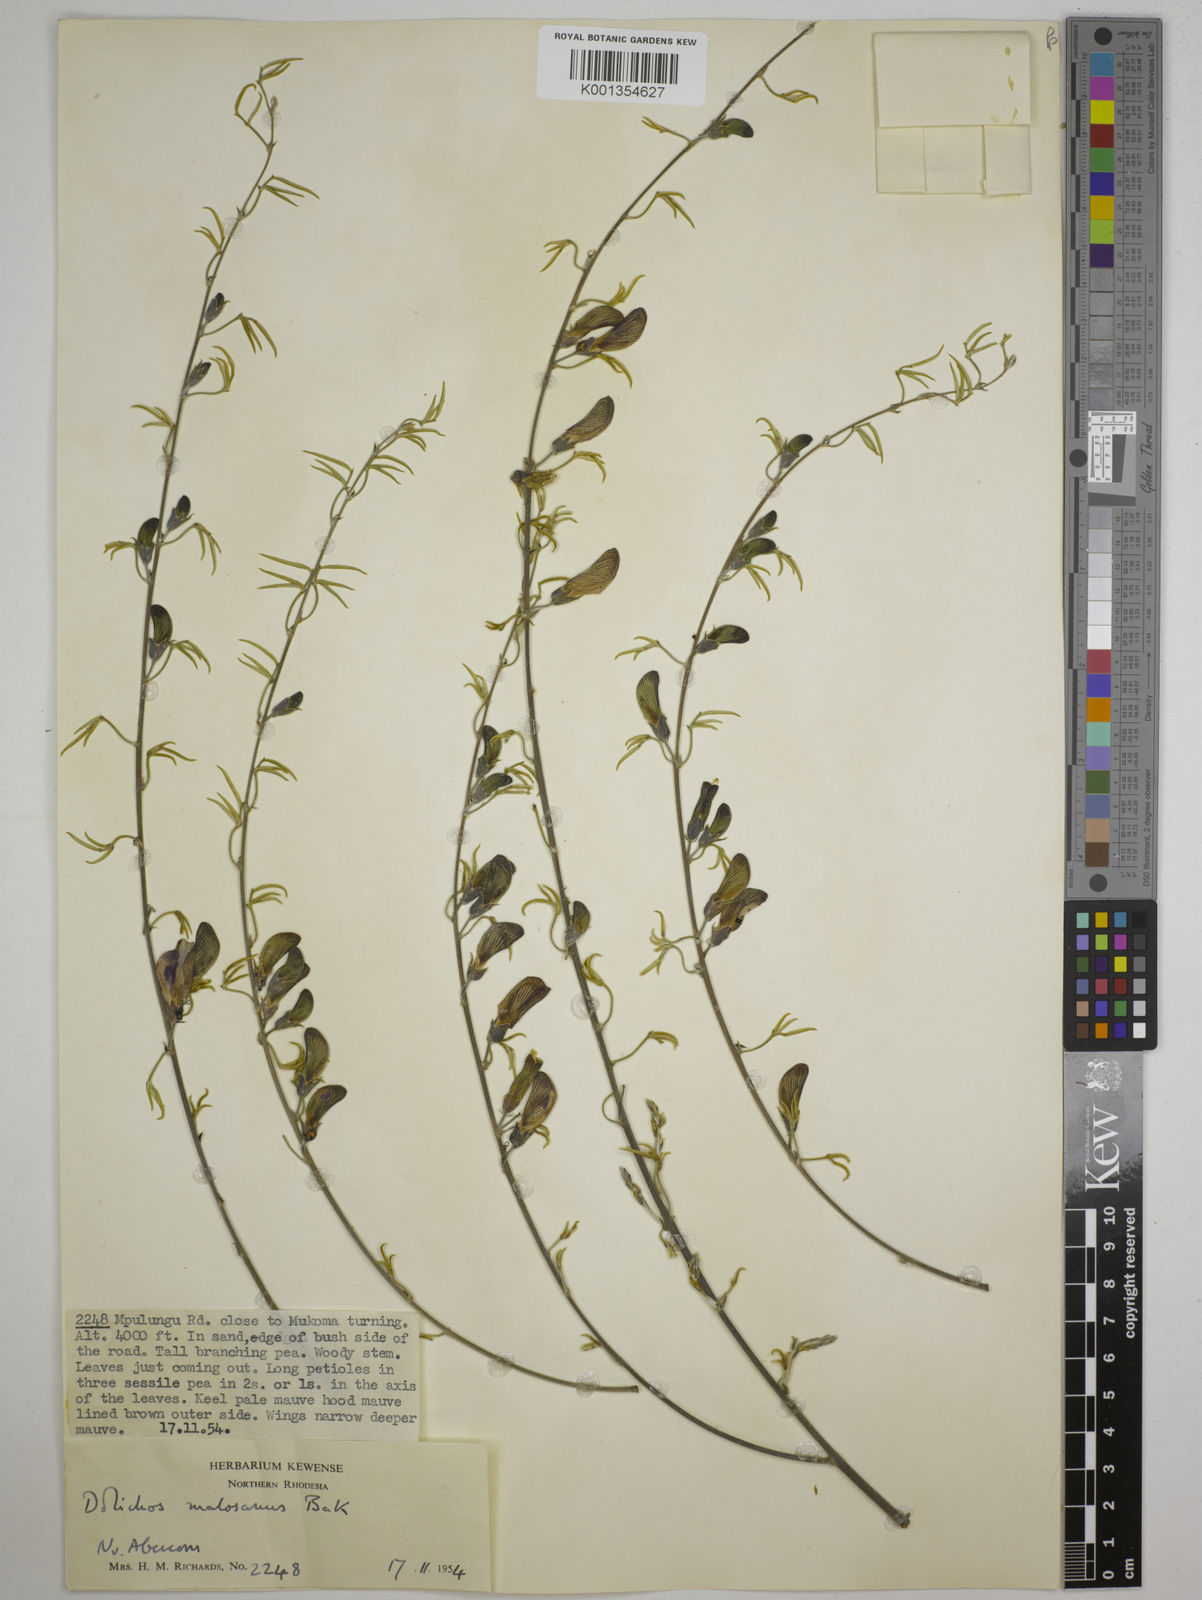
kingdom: Plantae
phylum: Tracheophyta
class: Magnoliopsida
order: Fabales
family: Fabaceae
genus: Dolichos
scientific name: Dolichos kilimandscharicus
